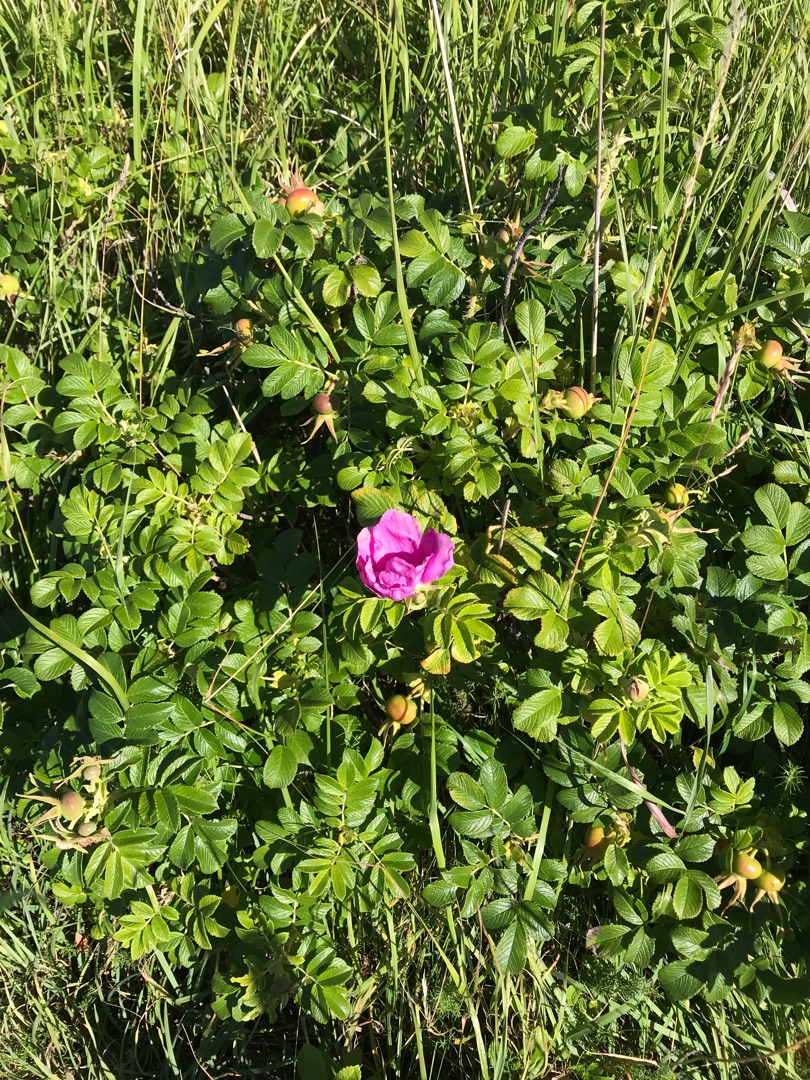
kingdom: Plantae
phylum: Tracheophyta
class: Magnoliopsida
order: Rosales
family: Rosaceae
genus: Rosa
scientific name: Rosa rugosa
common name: Rynket rose
